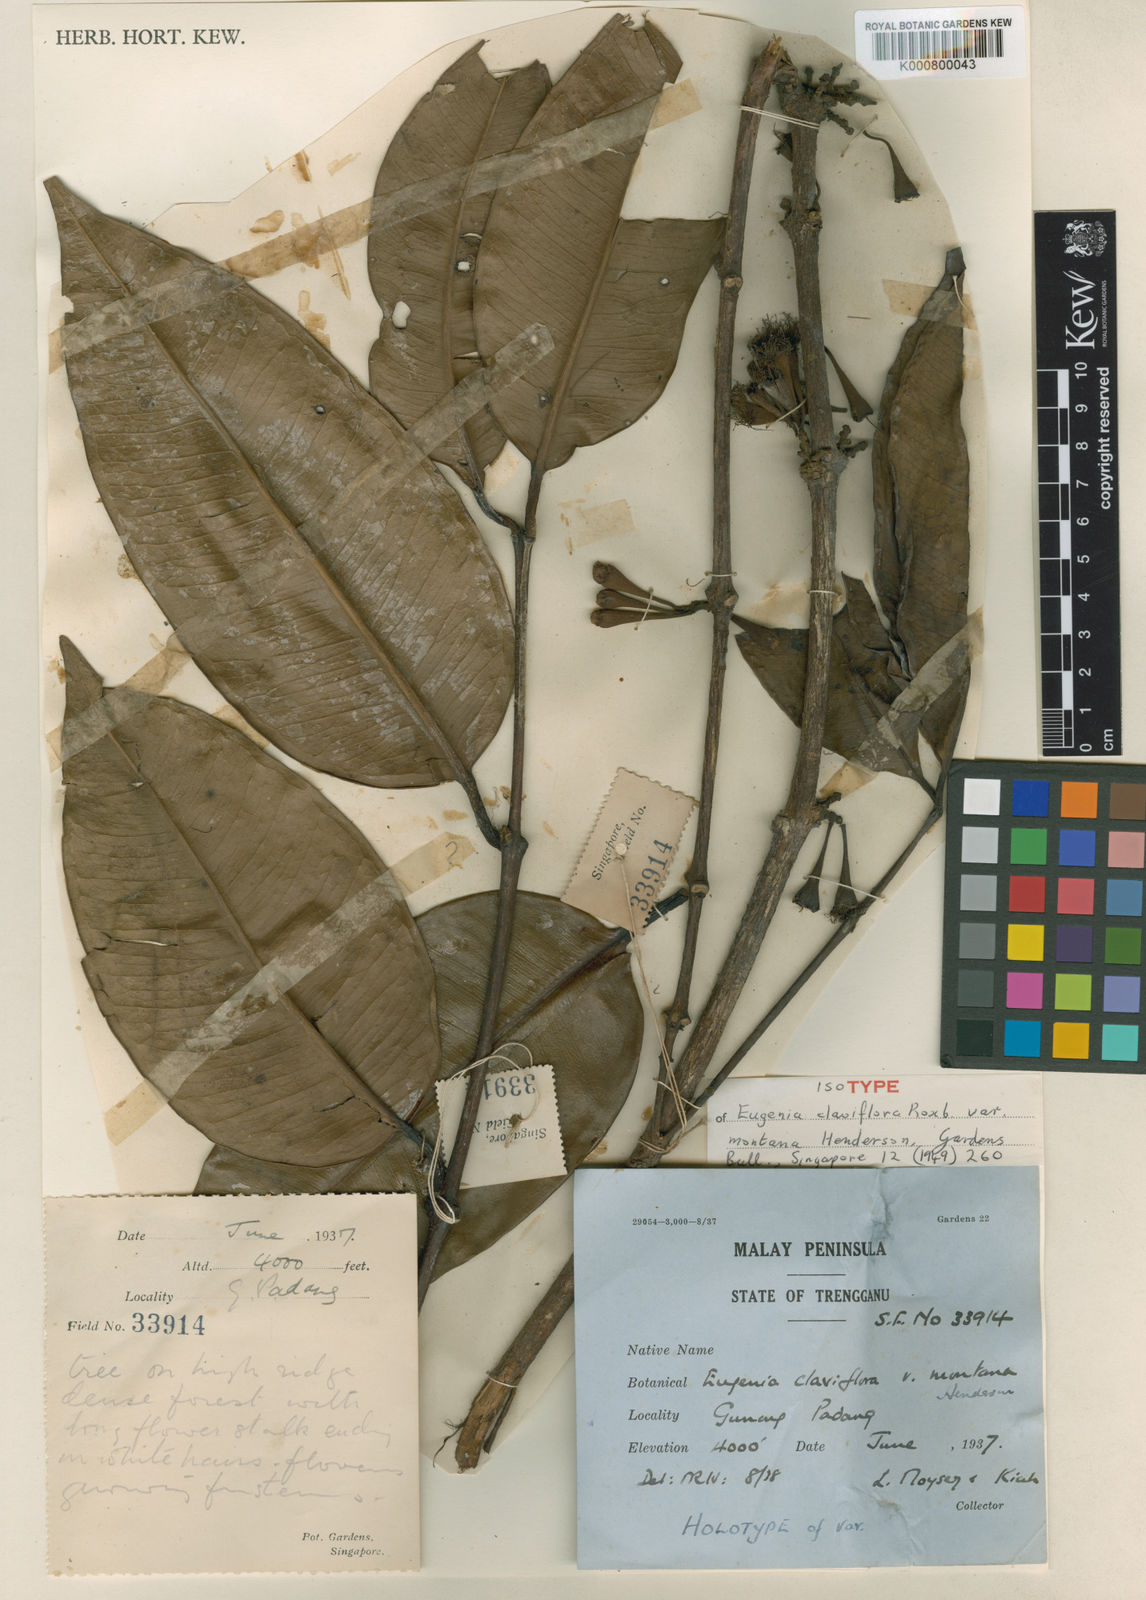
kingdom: Plantae
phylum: Tracheophyta
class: Magnoliopsida
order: Myrtales
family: Myrtaceae
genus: Syzygium
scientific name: Syzygium claviflorum
